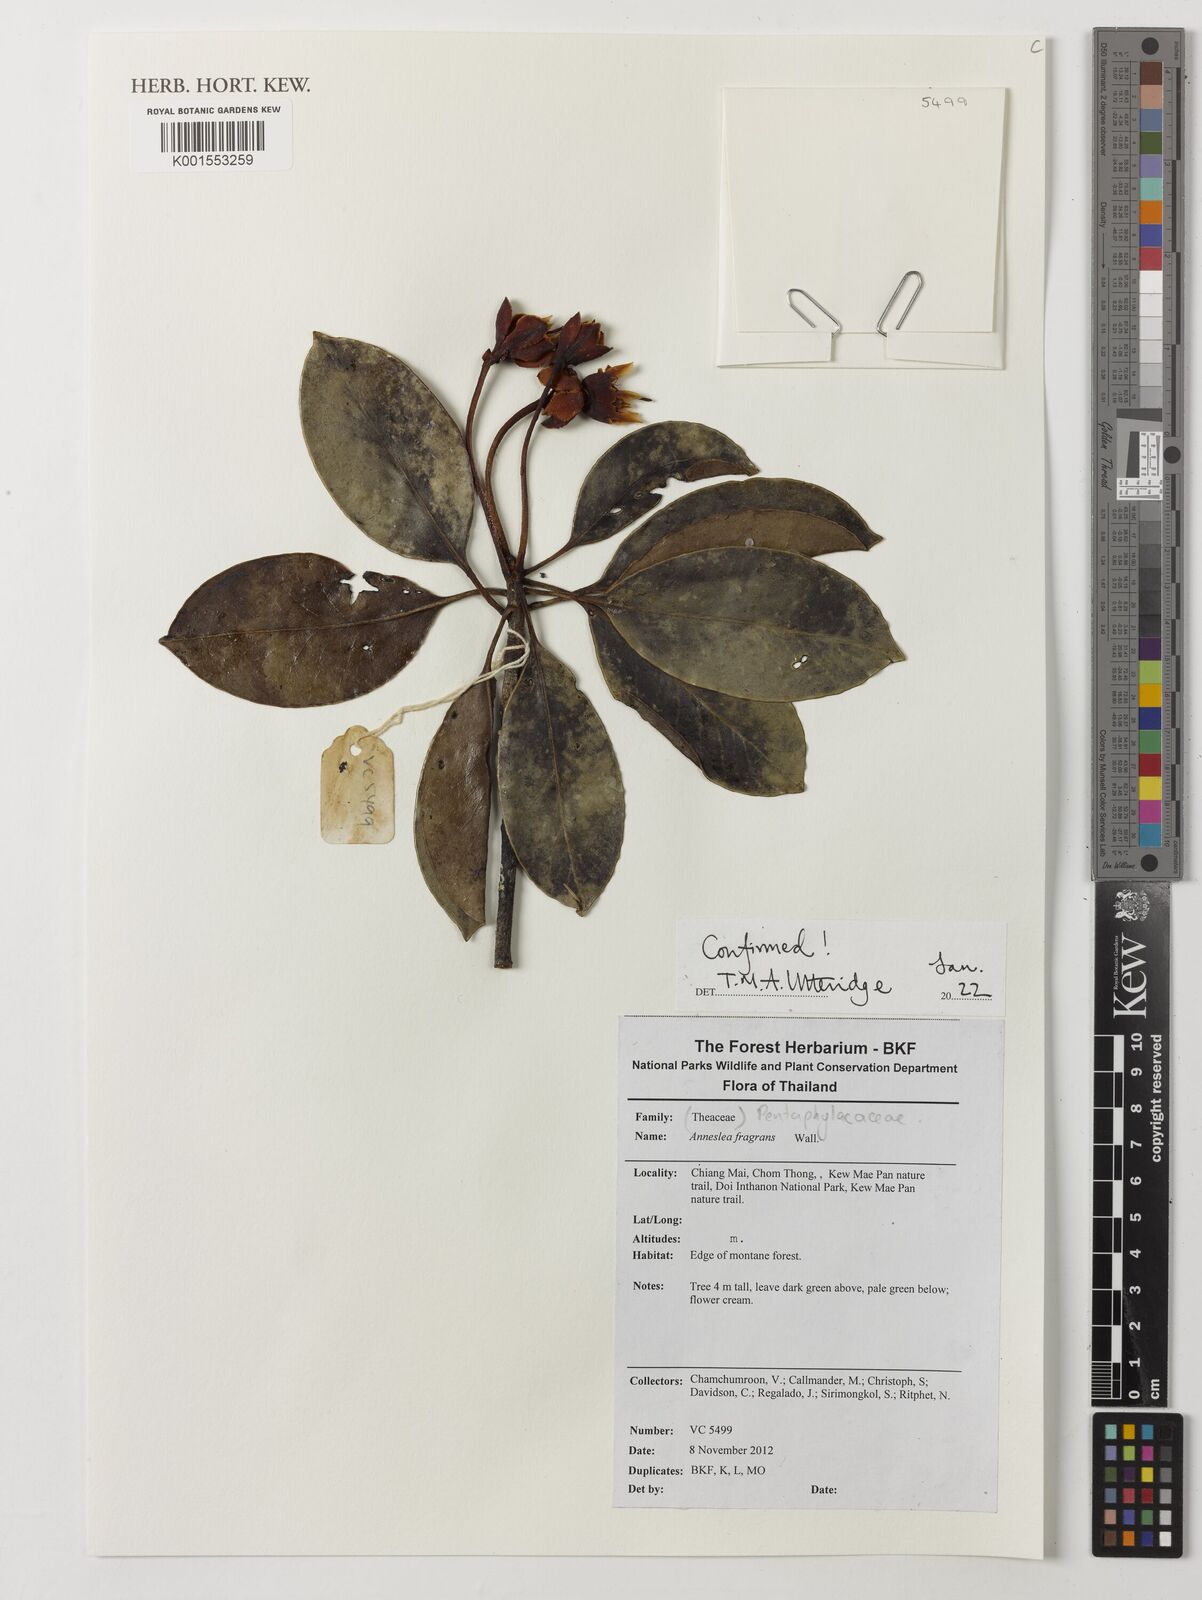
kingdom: Plantae
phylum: Tracheophyta
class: Magnoliopsida
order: Ericales
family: Pentaphylacaceae
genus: Anneslea
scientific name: Anneslea fragrans
